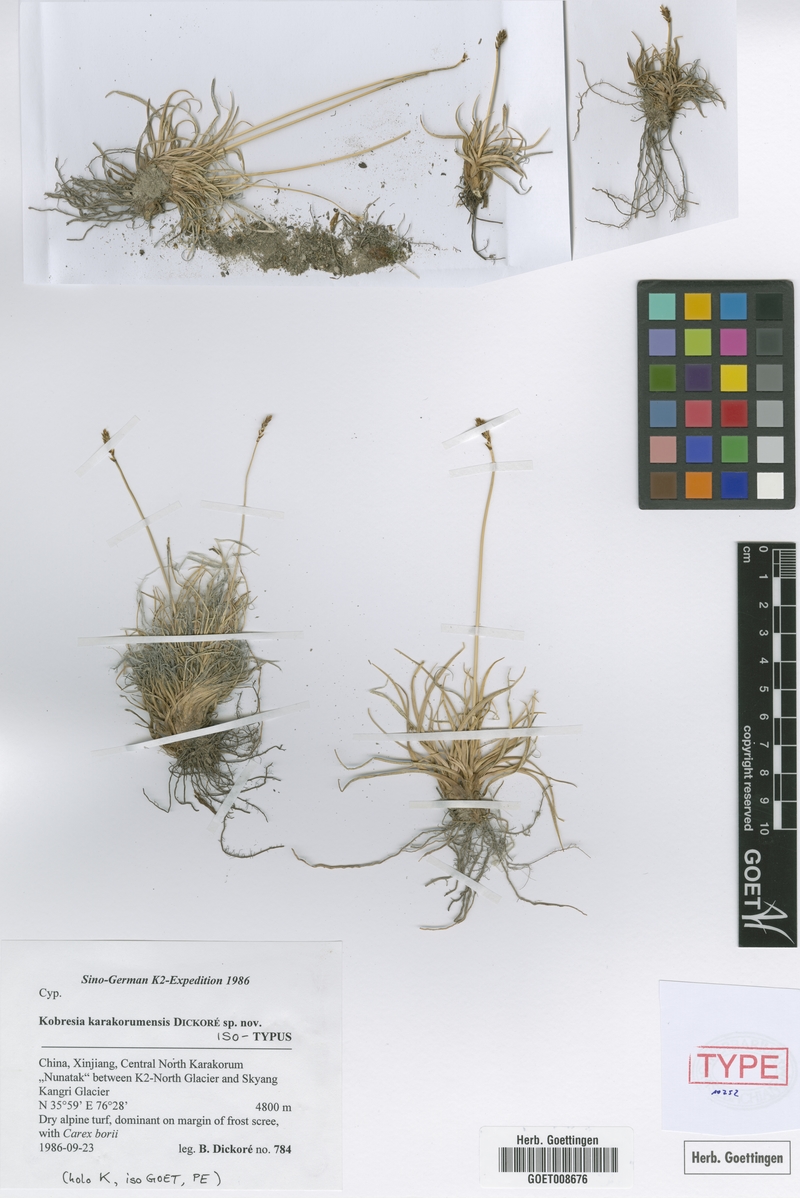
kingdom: Plantae
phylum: Tracheophyta
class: Liliopsida
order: Poales
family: Cyperaceae
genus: Carex
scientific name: Carex coninux
